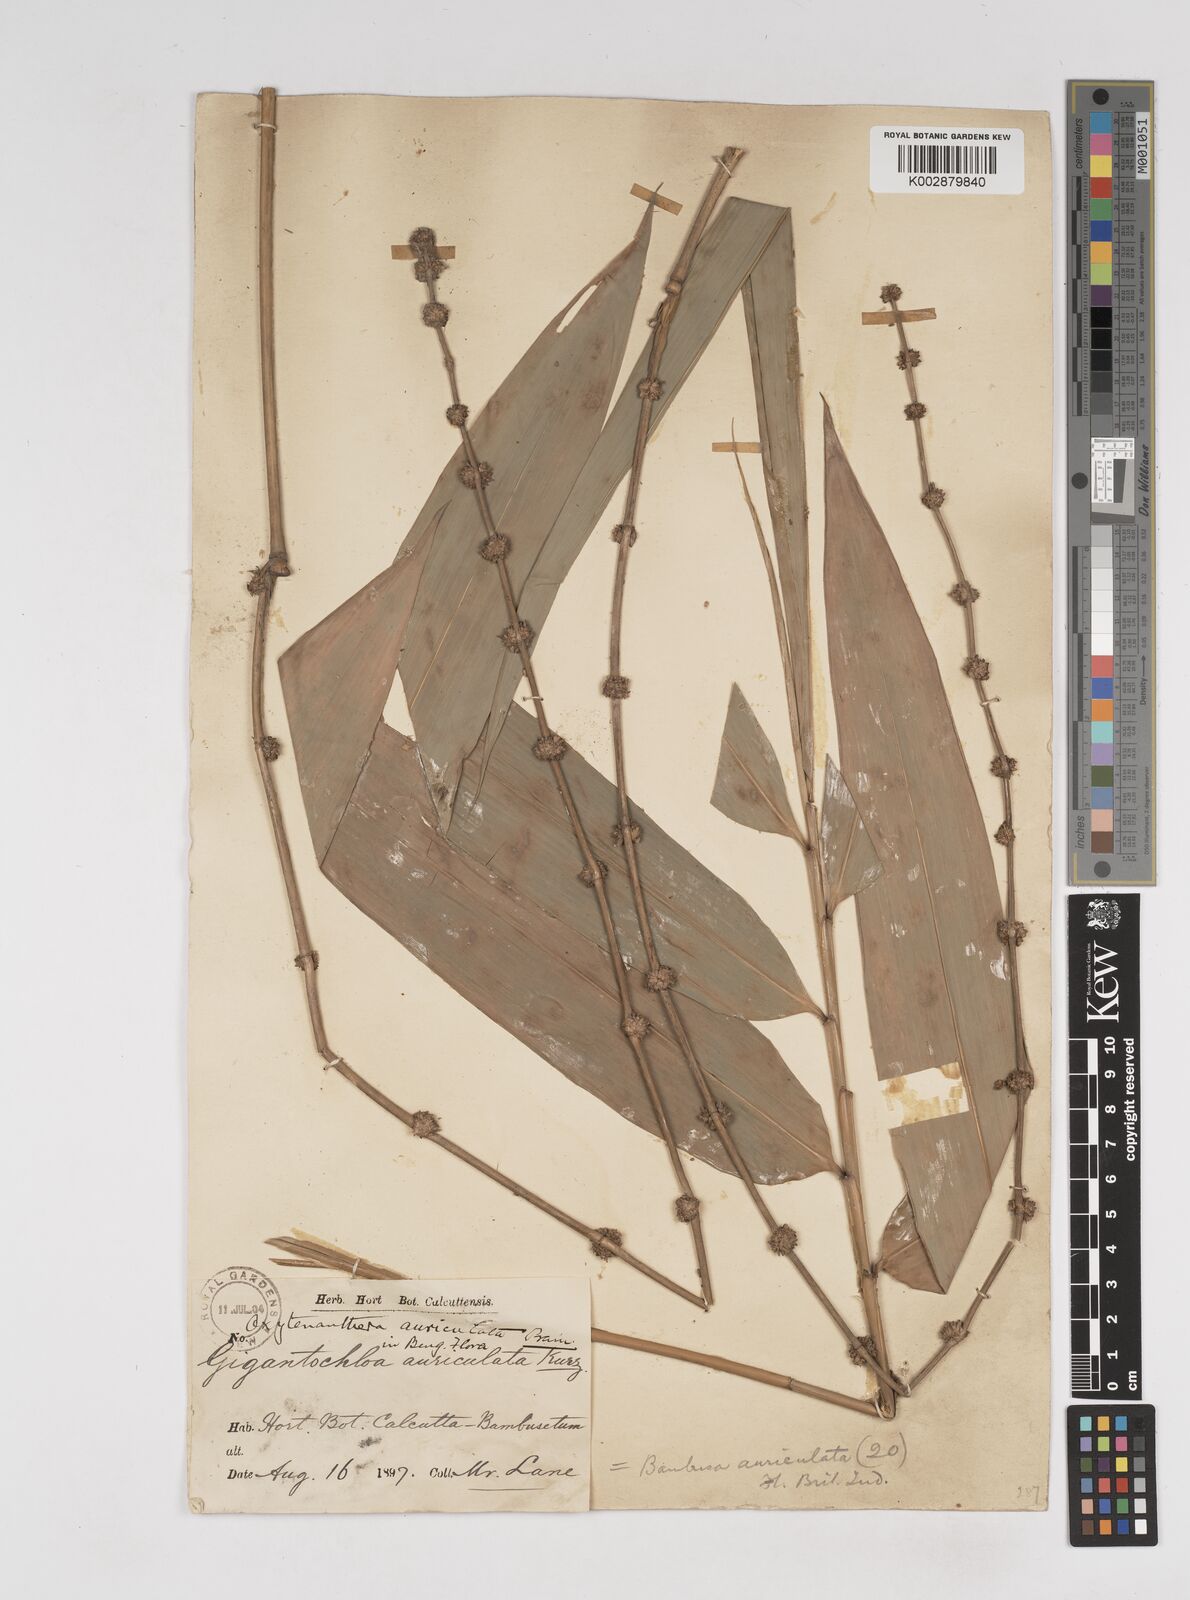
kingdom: Plantae
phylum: Tracheophyta
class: Liliopsida
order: Poales
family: Poaceae
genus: Gigantochloa
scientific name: Gigantochloa nigrociliata
